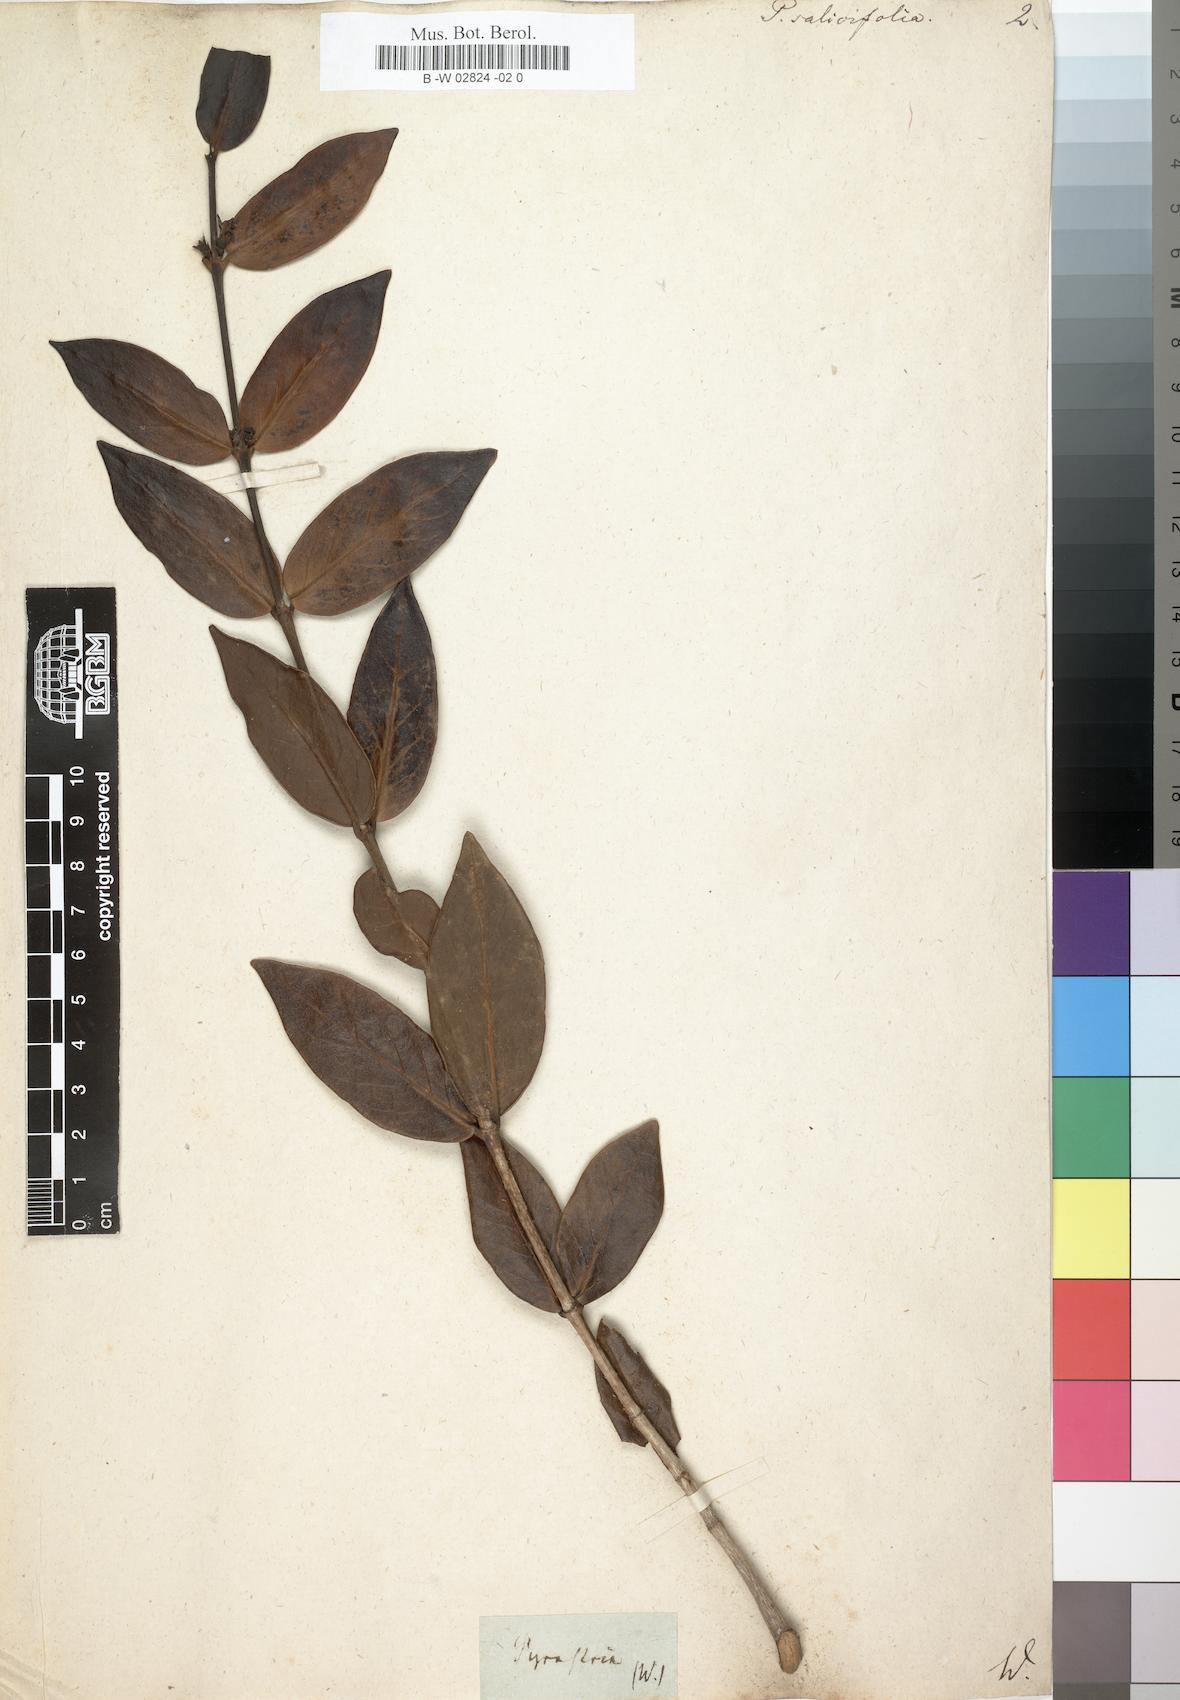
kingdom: Plantae
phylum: Tracheophyta
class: Magnoliopsida
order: Gentianales
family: Rubiaceae
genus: Pyrostria
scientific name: Pyrostria commersonii
